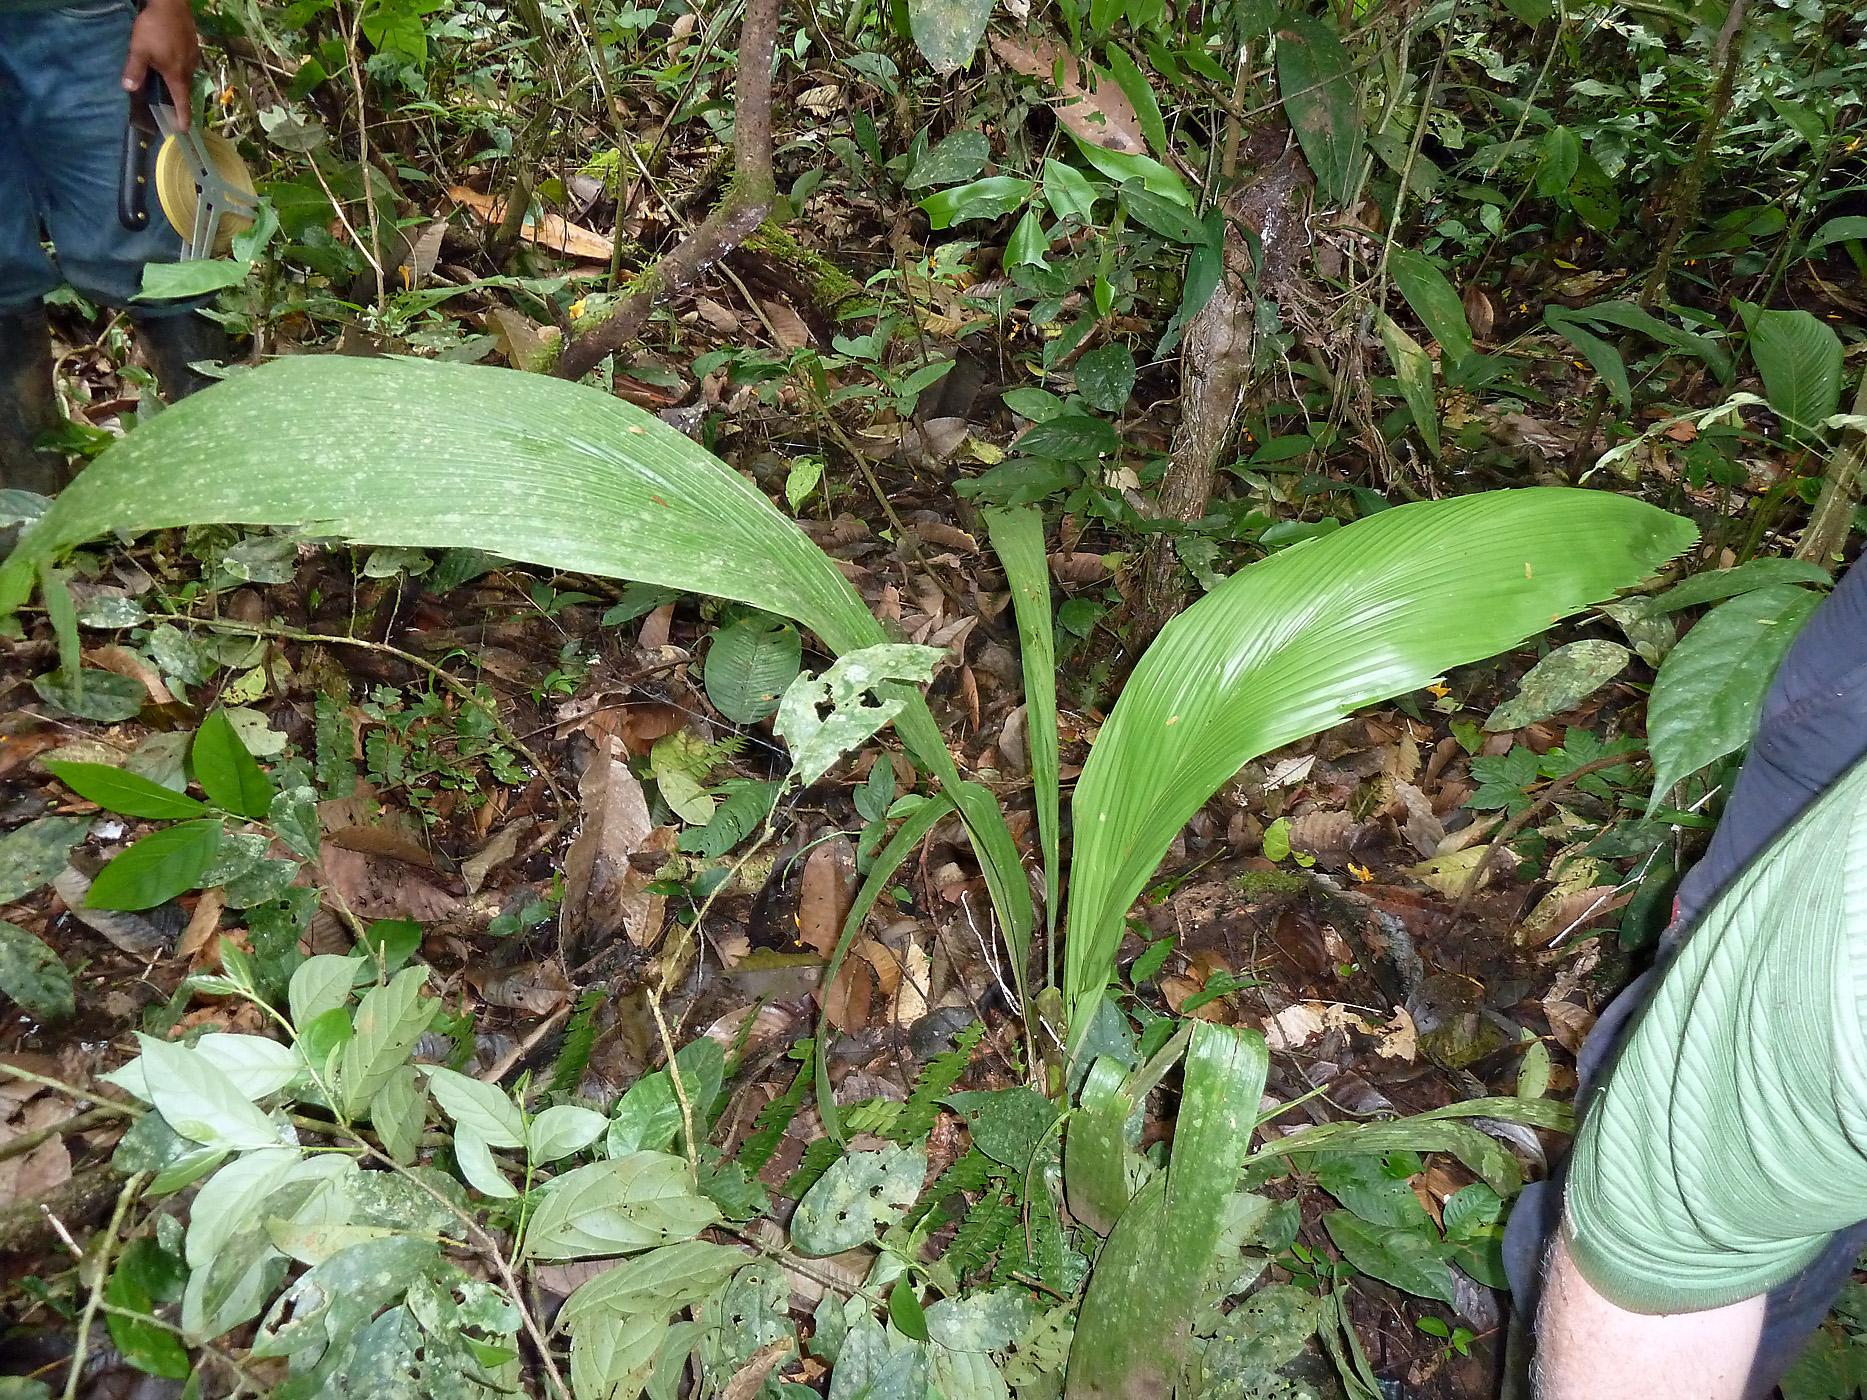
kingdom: Plantae
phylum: Tracheophyta
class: Liliopsida
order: Arecales
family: Arecaceae
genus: Attalea
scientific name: Attalea butyracea
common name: Kuakish
